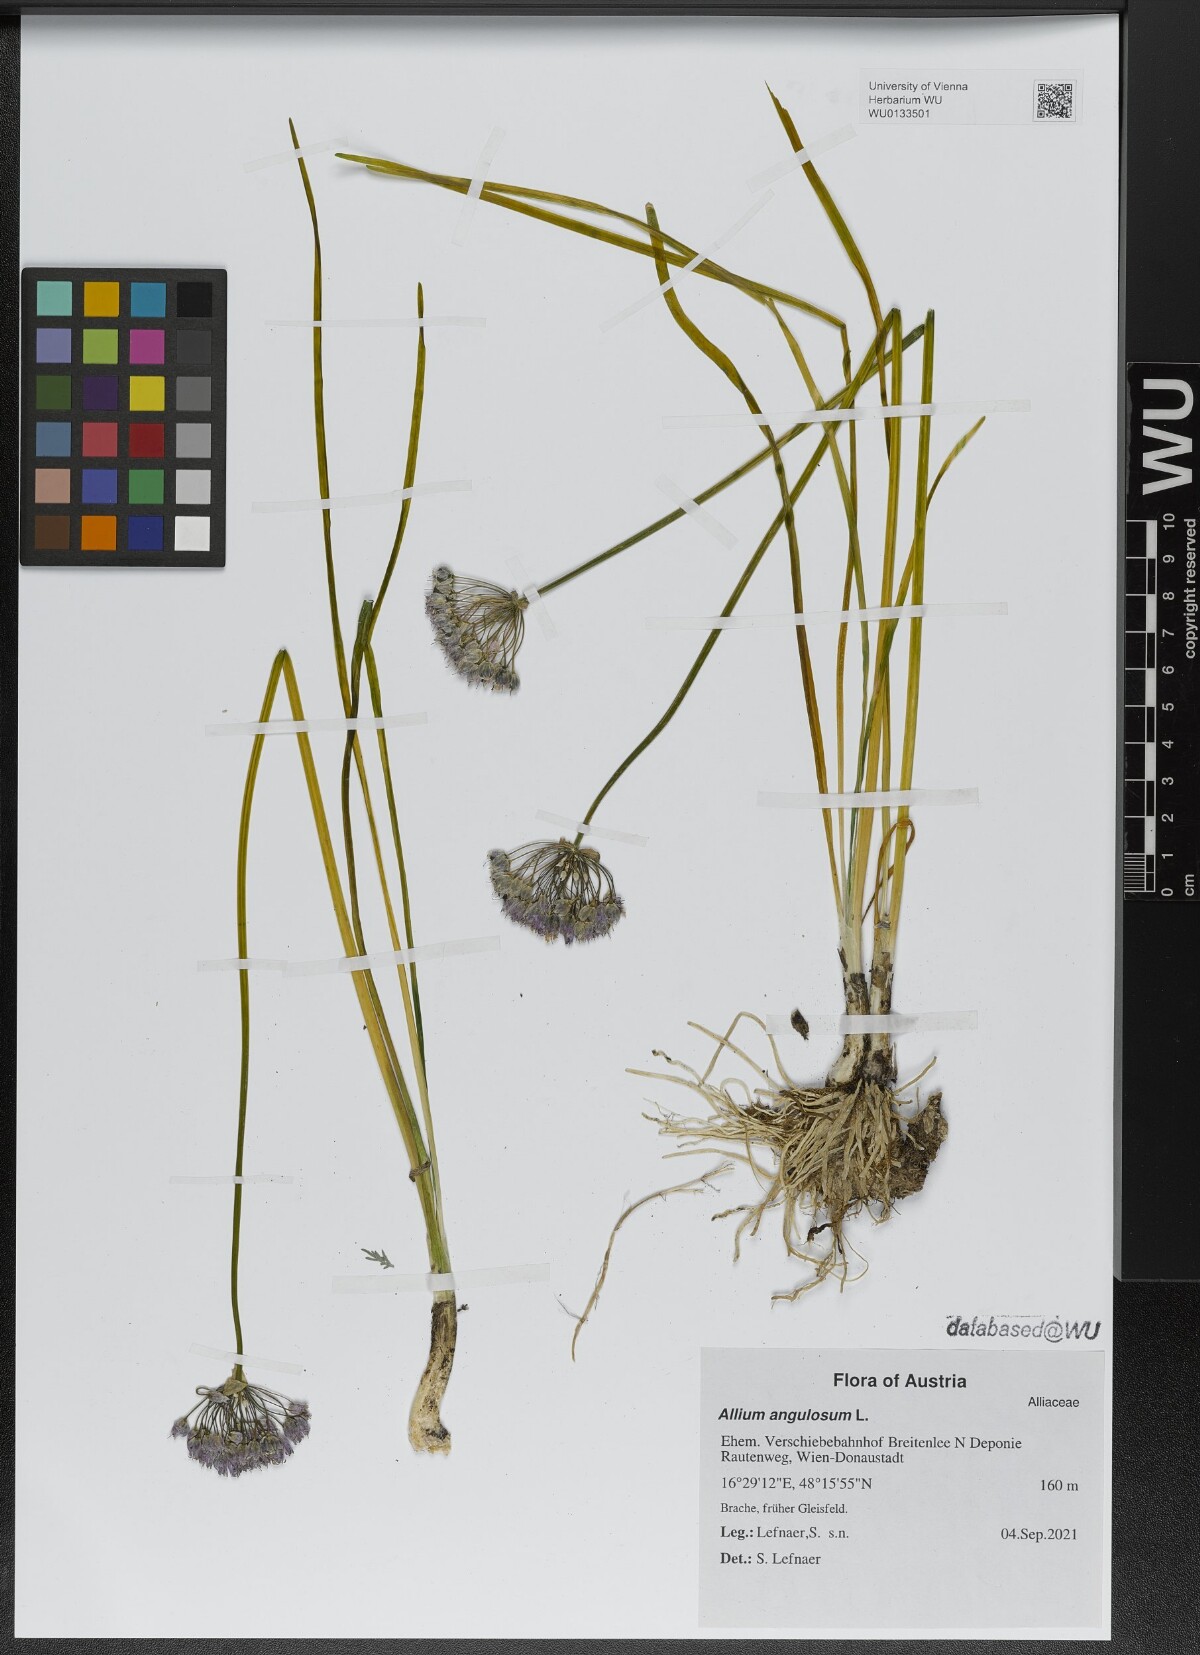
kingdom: Plantae
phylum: Tracheophyta
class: Liliopsida
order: Asparagales
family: Amaryllidaceae
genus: Allium
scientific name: Allium angulosum
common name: Mouse garlic
